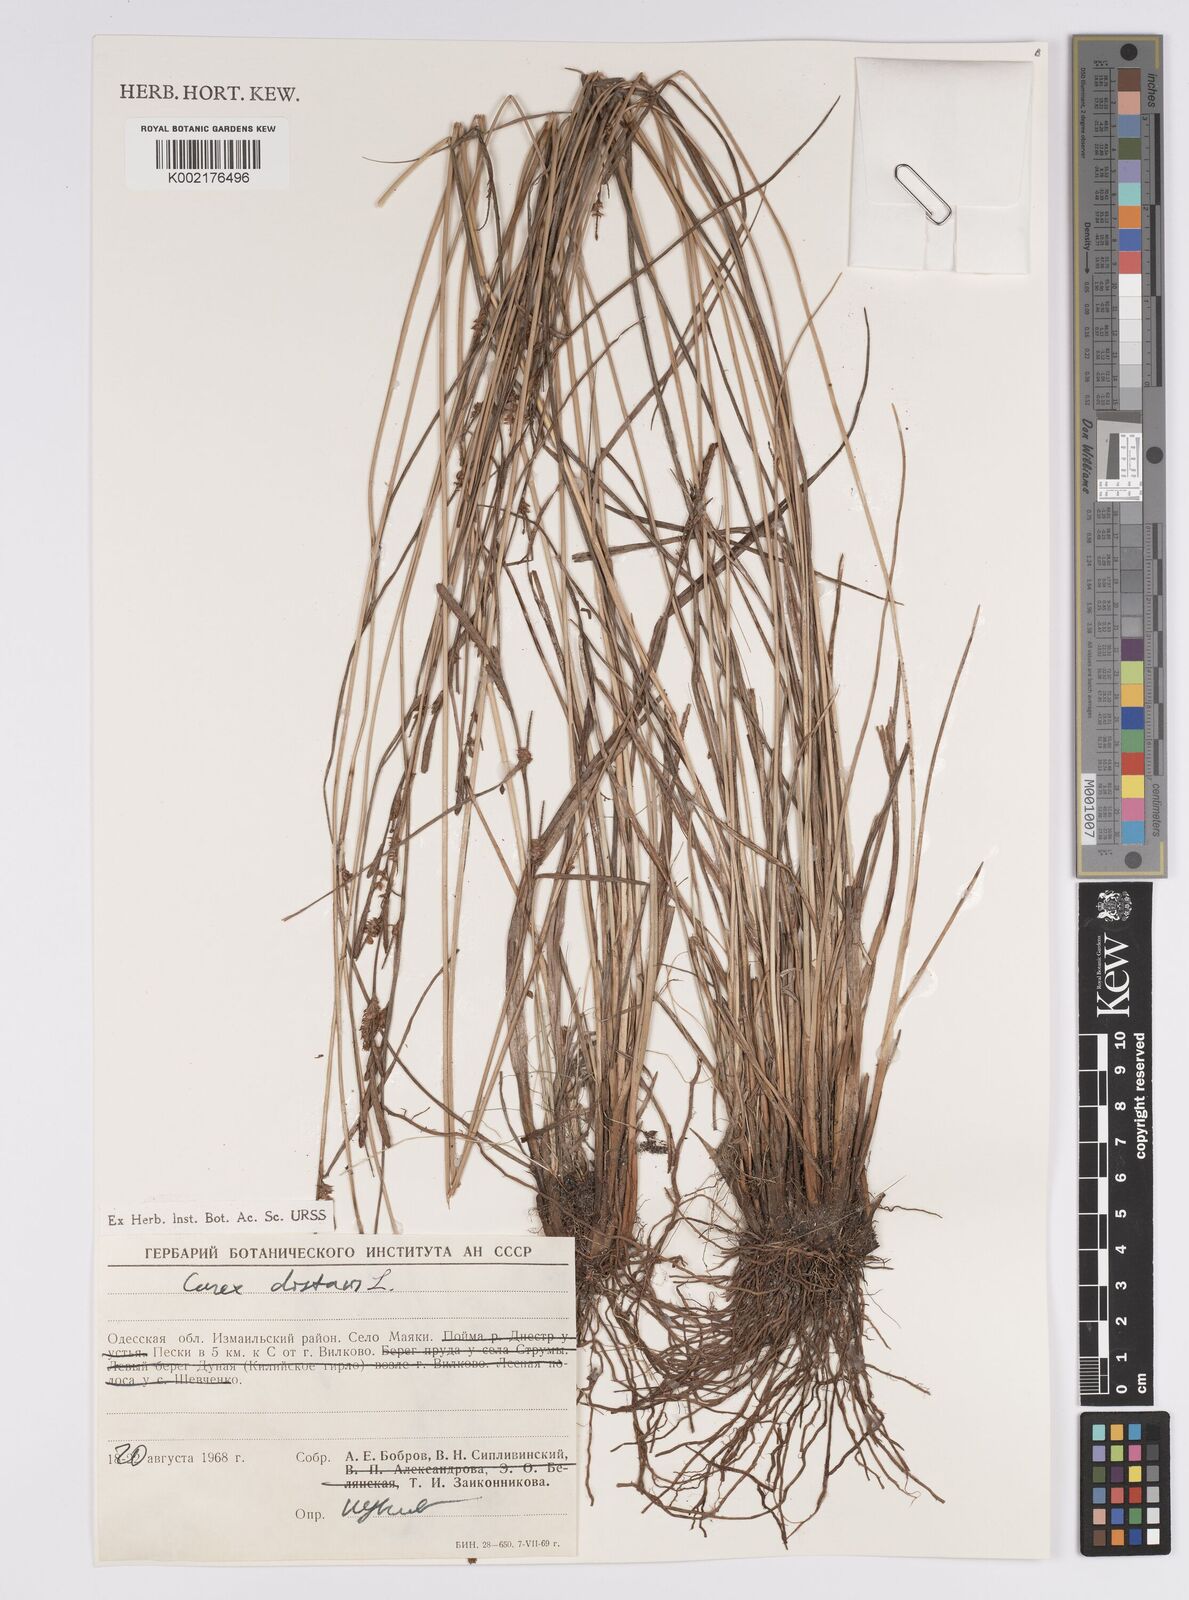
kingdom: Plantae
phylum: Tracheophyta
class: Liliopsida
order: Poales
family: Cyperaceae
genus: Carex
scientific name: Carex distans
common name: Distant sedge
